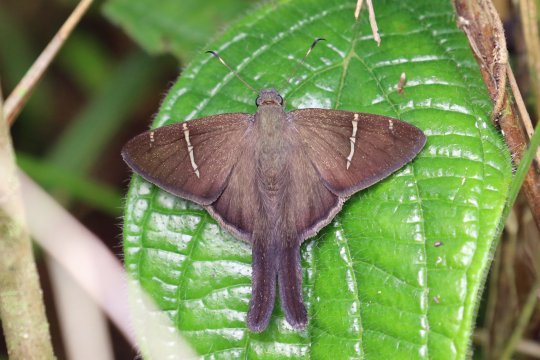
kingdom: Animalia
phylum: Arthropoda
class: Insecta
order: Lepidoptera
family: Hesperiidae
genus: Urbanus
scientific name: Urbanus teleus
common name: Teleus Longtail
